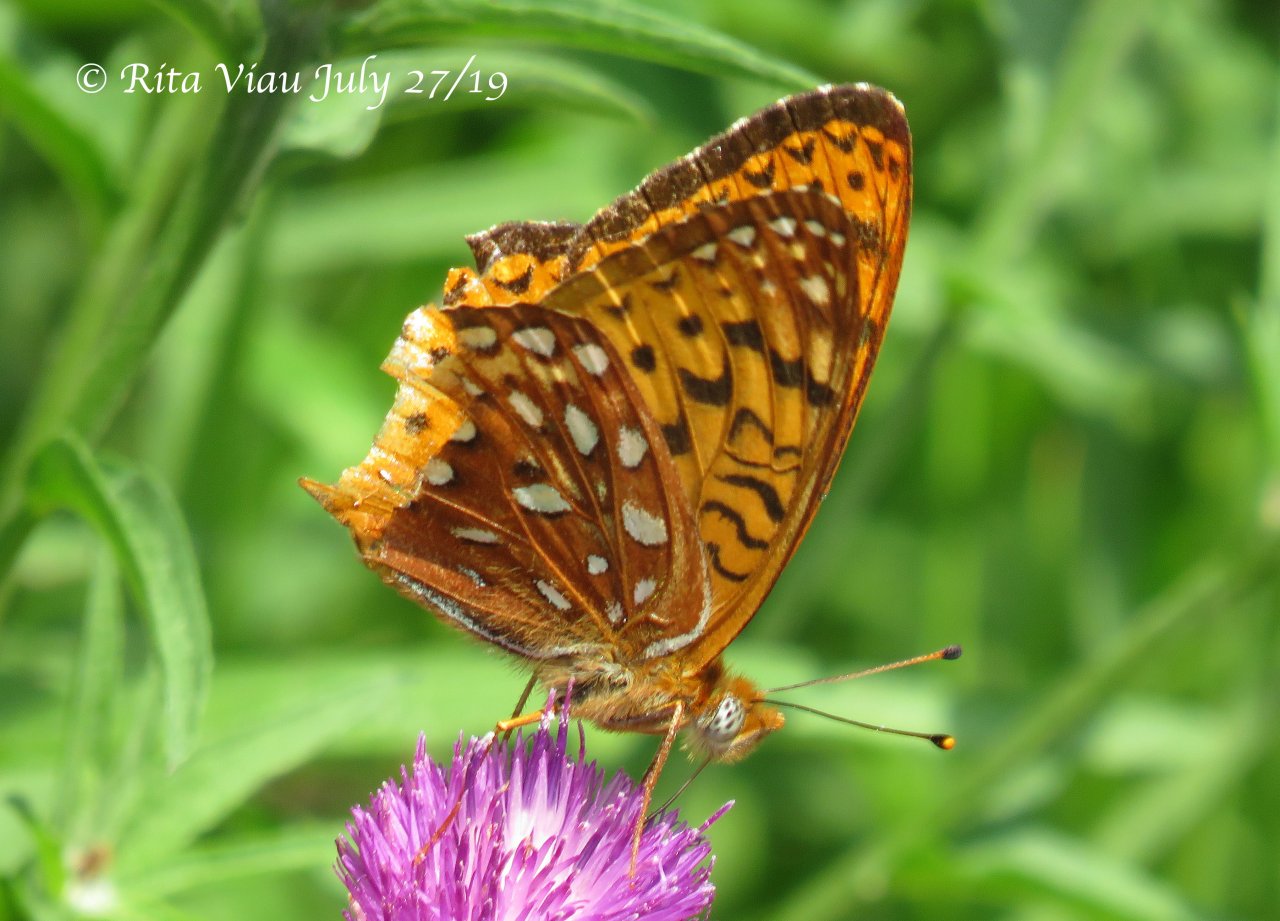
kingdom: Animalia
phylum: Arthropoda
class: Insecta
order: Lepidoptera
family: Nymphalidae
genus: Speyeria
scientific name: Speyeria atlantis
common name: Atlantis Fritillary
